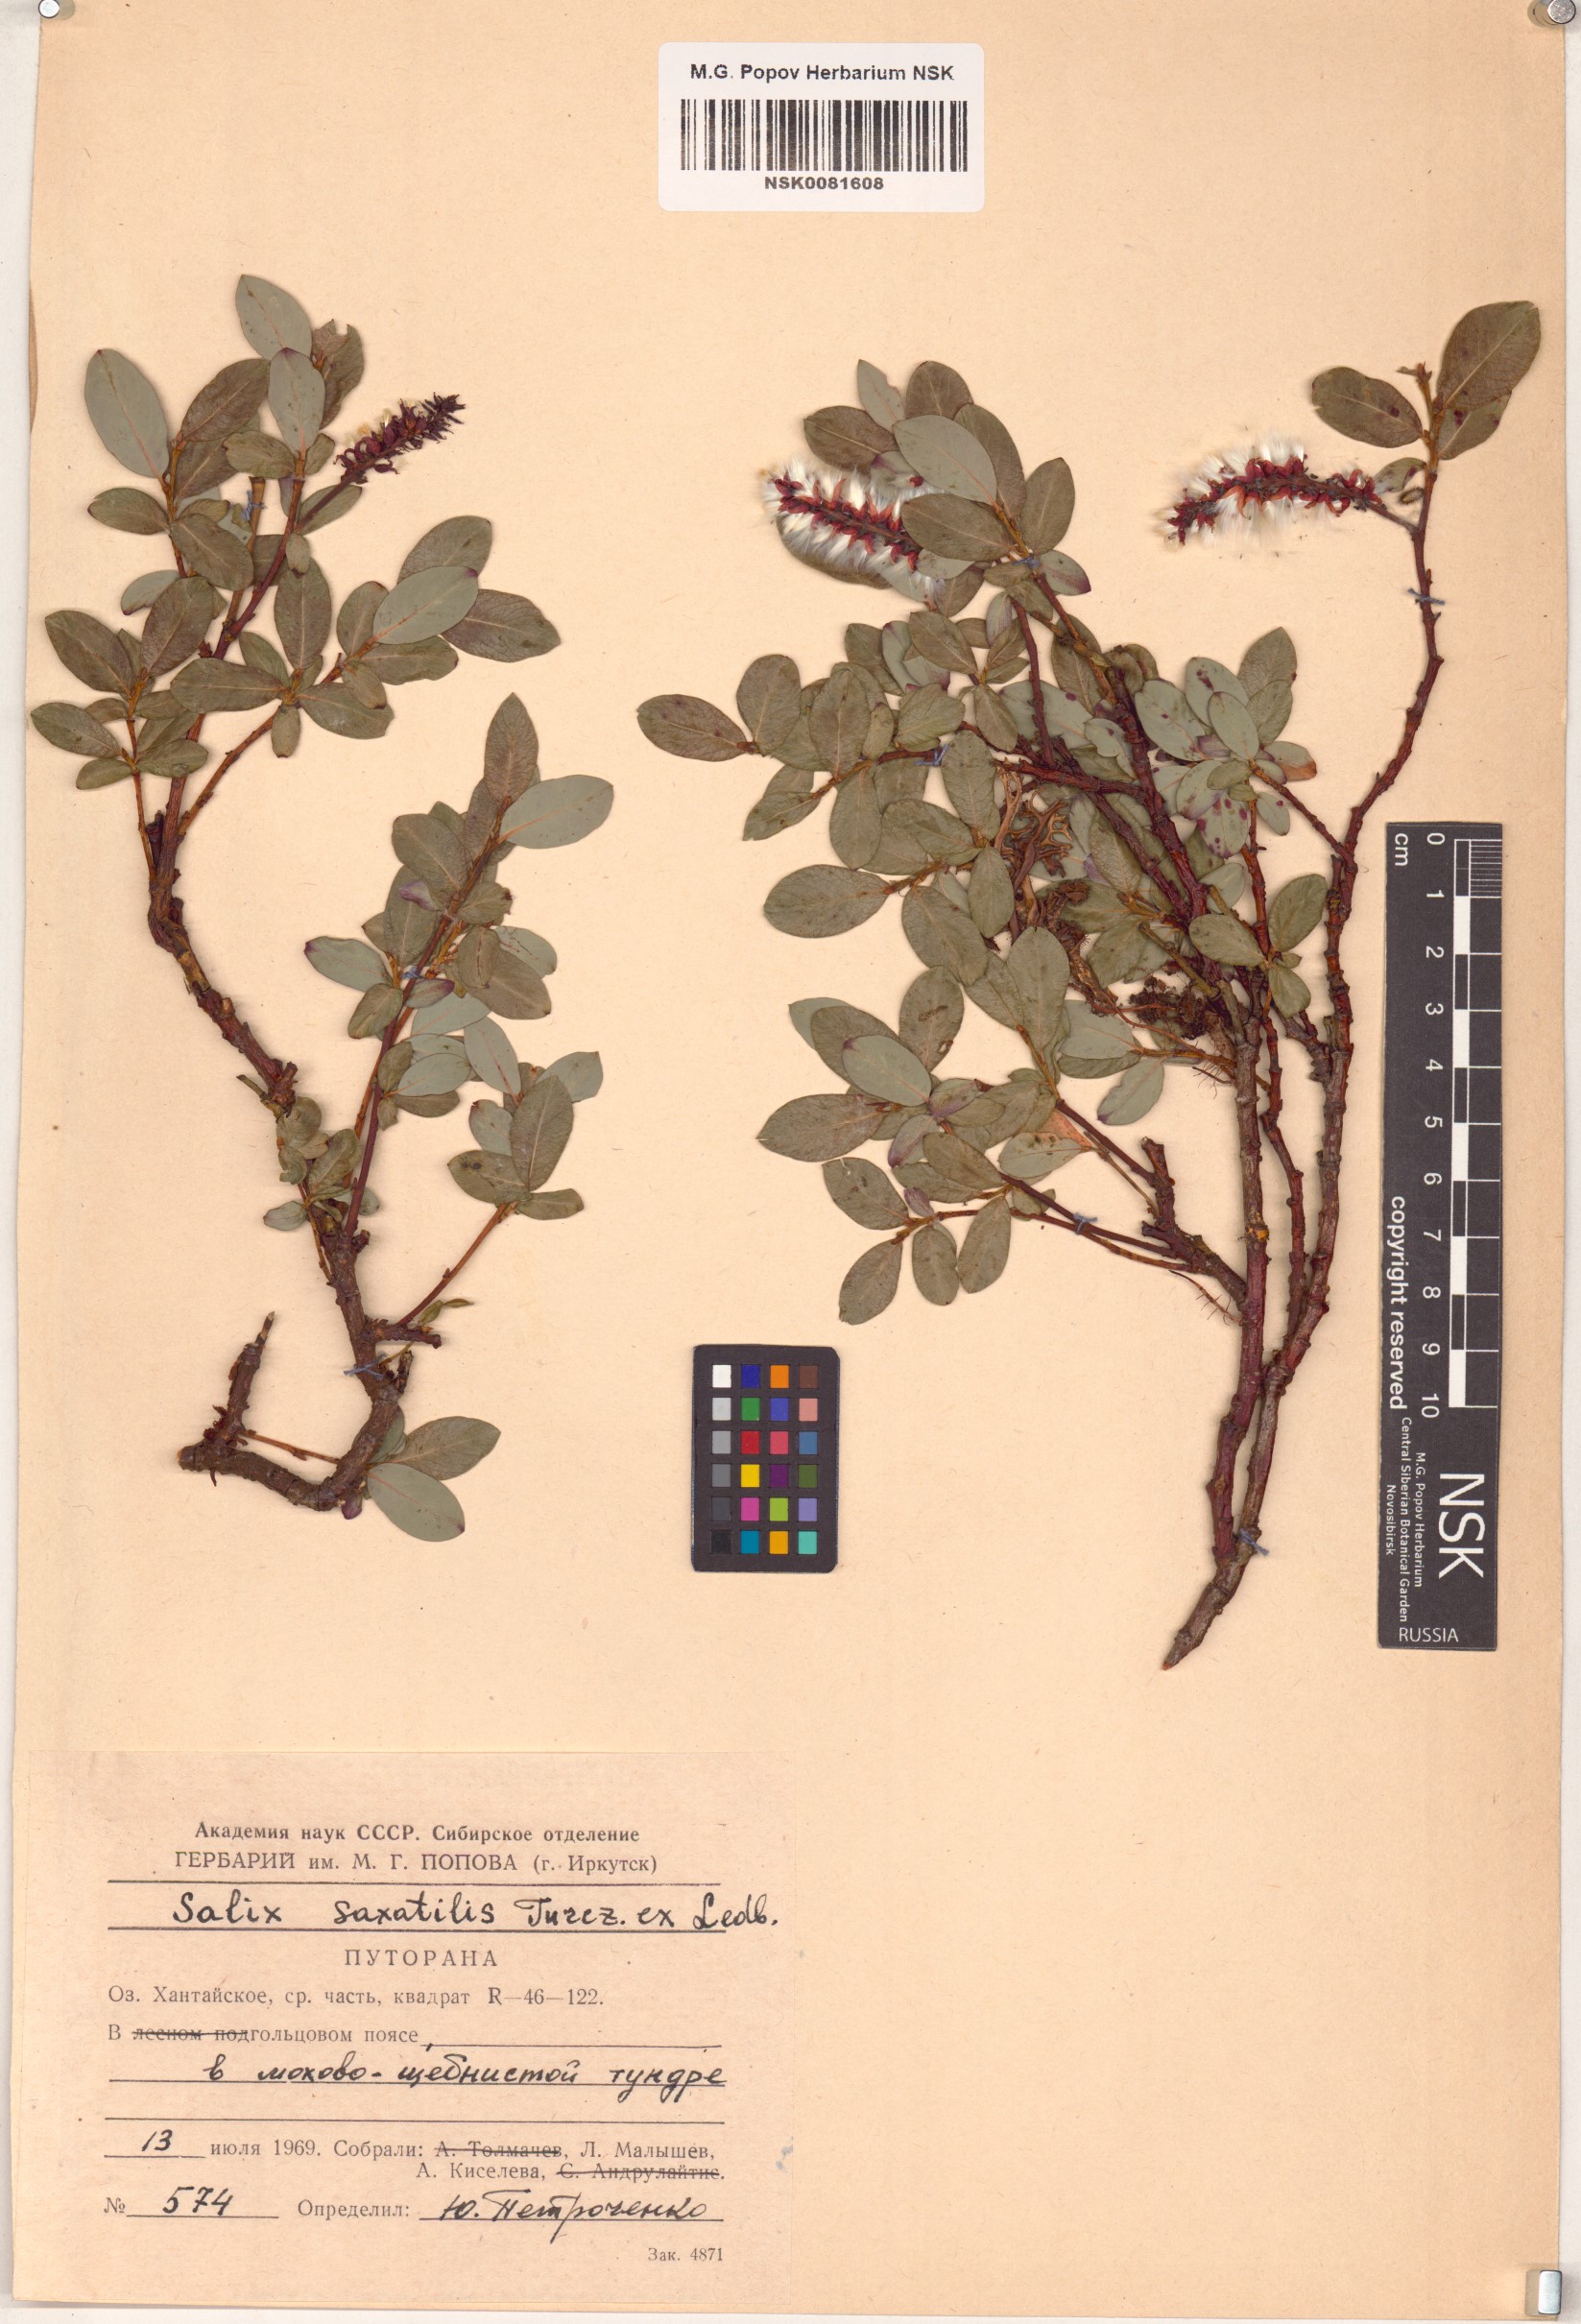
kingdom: Plantae
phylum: Tracheophyta
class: Magnoliopsida
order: Malpighiales
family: Salicaceae
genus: Salix
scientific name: Salix saxatilis
